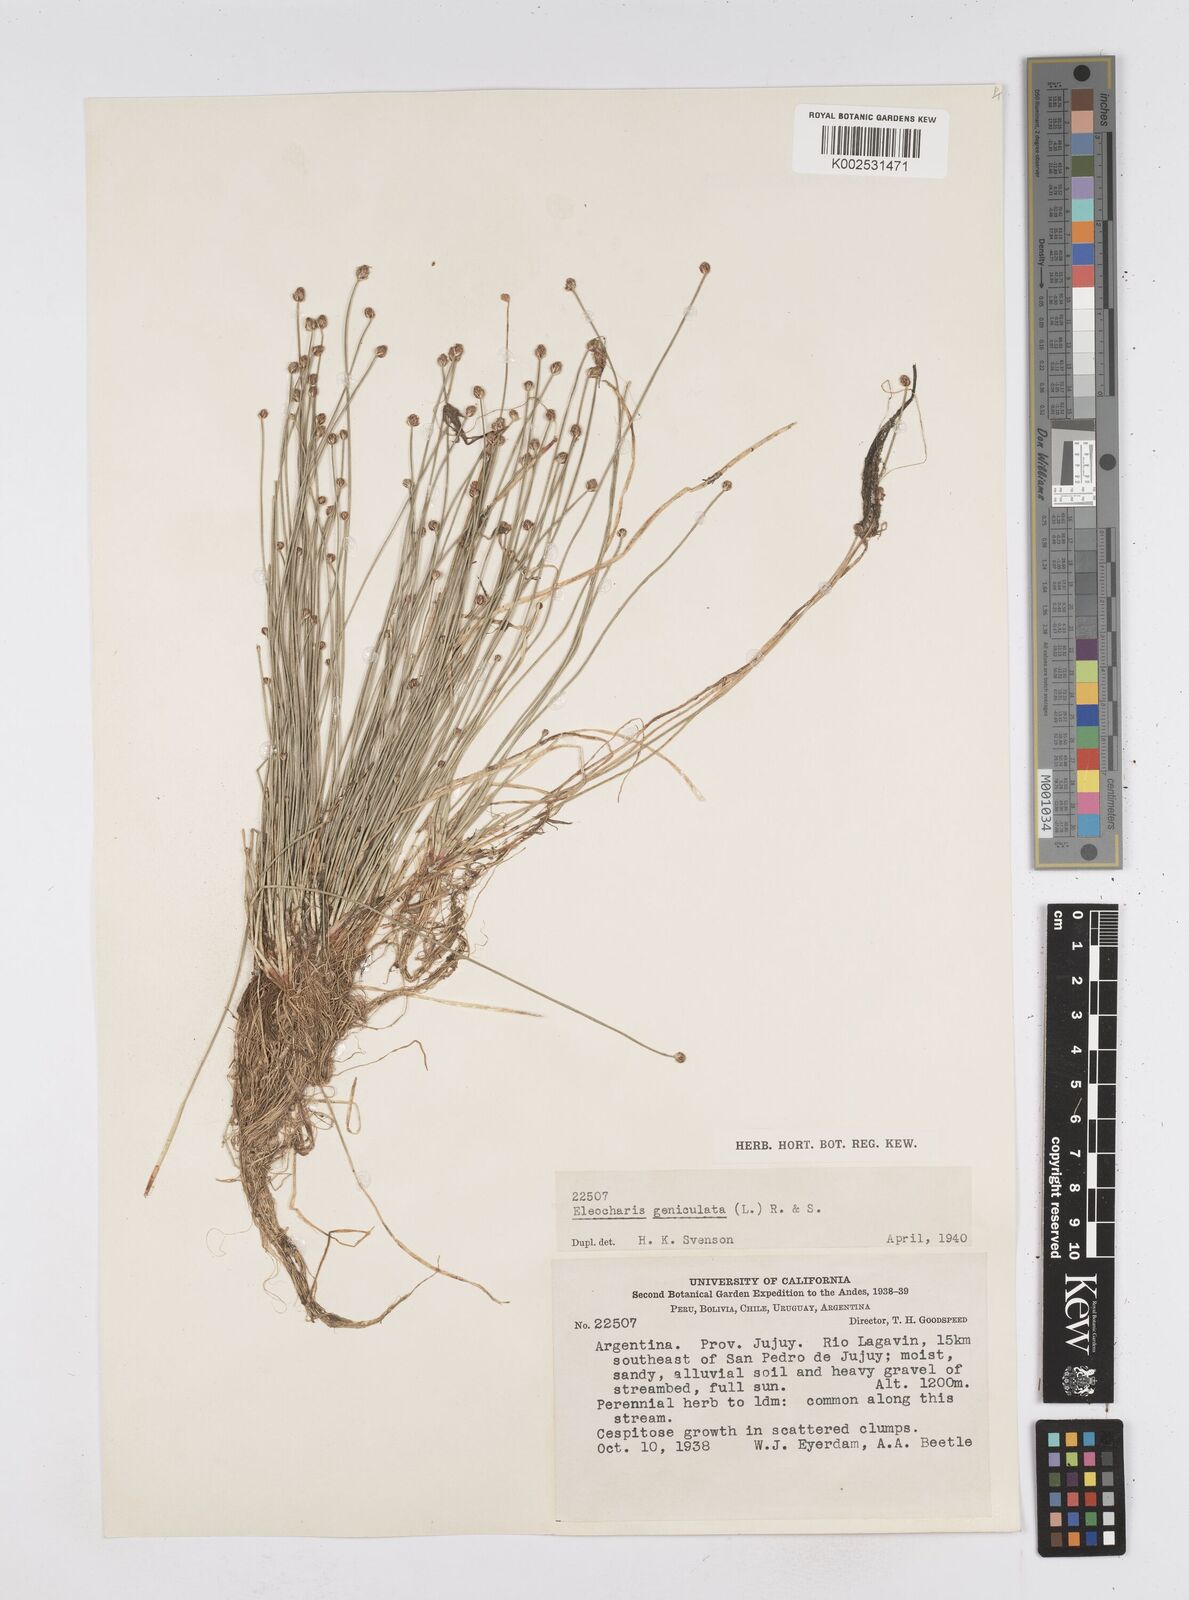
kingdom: Plantae
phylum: Tracheophyta
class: Liliopsida
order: Poales
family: Cyperaceae
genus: Eleocharis
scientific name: Eleocharis geniculata
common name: Canada spikesedge
